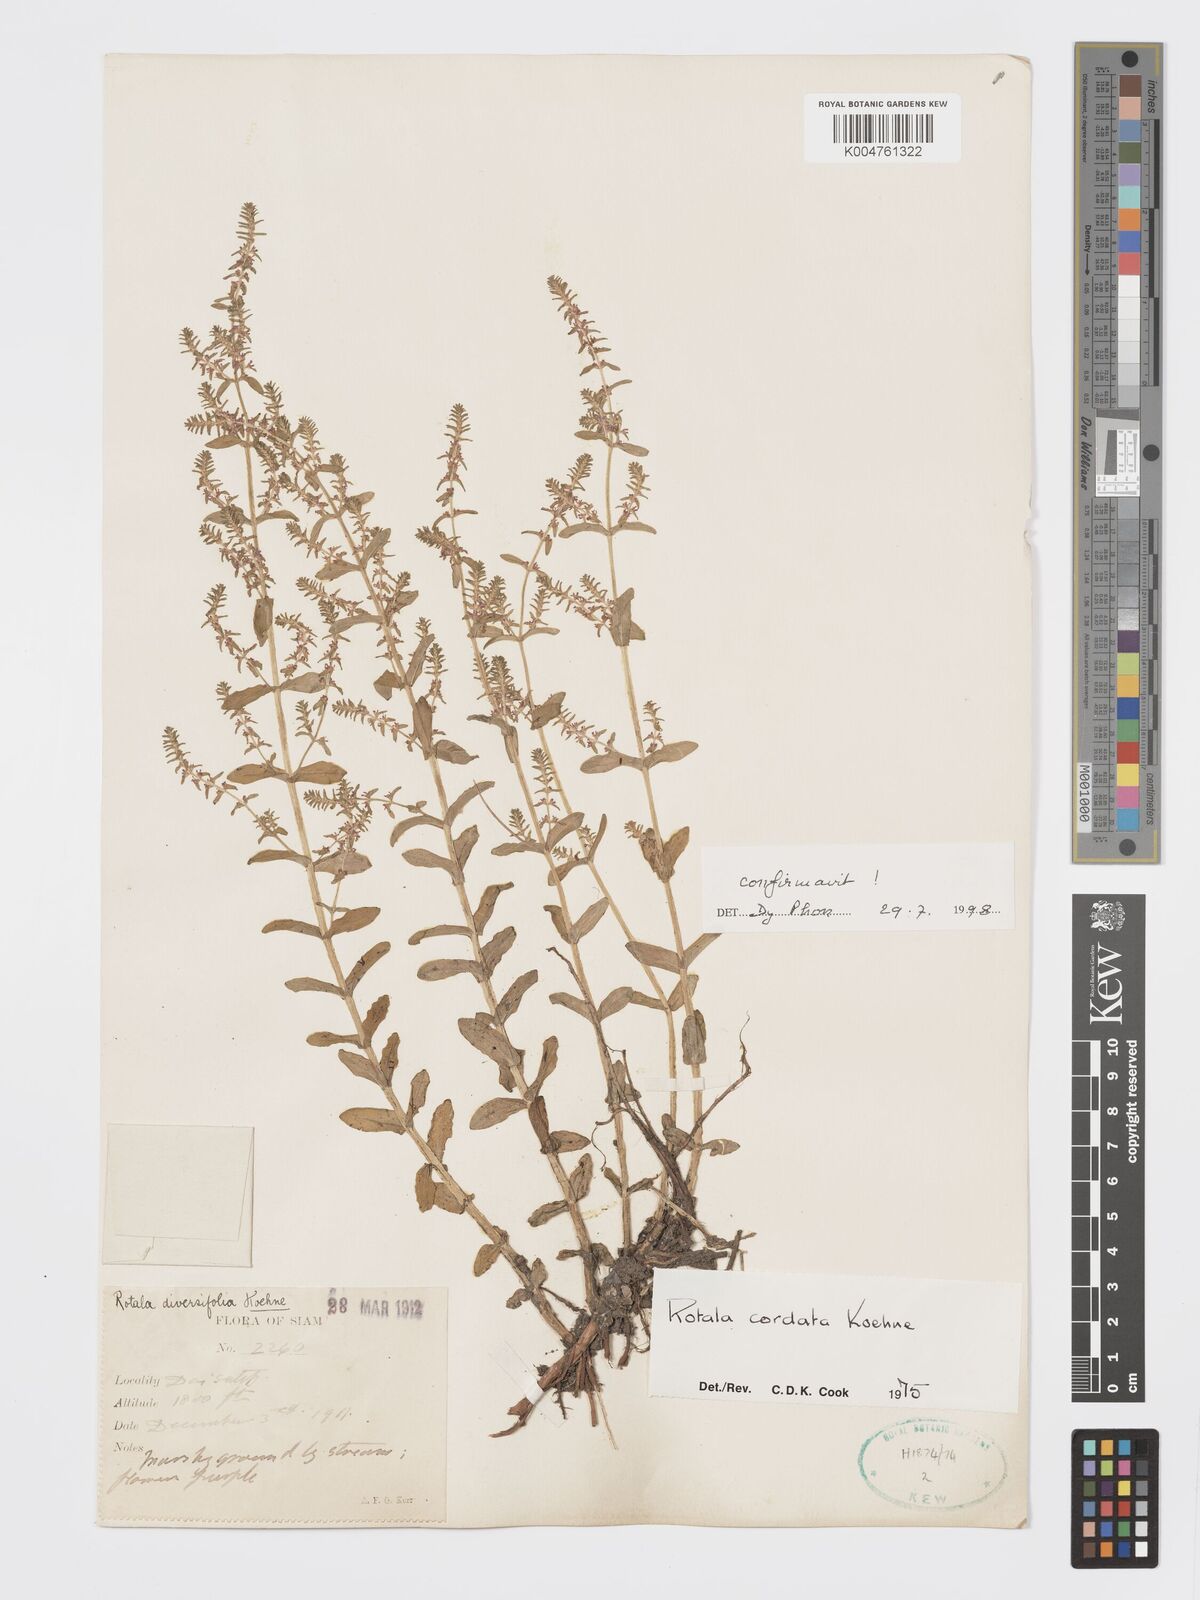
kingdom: Plantae
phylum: Tracheophyta
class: Magnoliopsida
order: Myrtales
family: Lythraceae
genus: Rotala
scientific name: Rotala cordata
